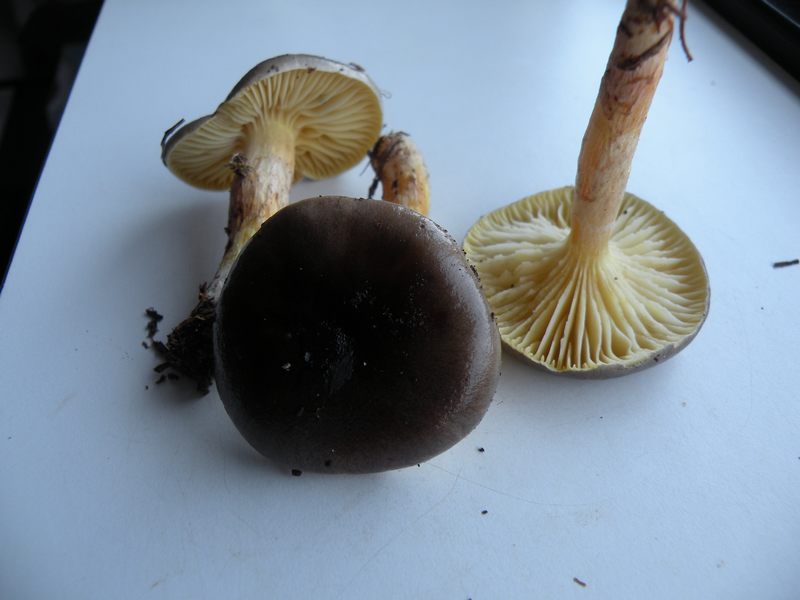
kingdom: Fungi
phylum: Basidiomycota
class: Agaricomycetes
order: Agaricales
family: Hygrophoraceae
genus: Hygrophorus
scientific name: Hygrophorus hypothejus
